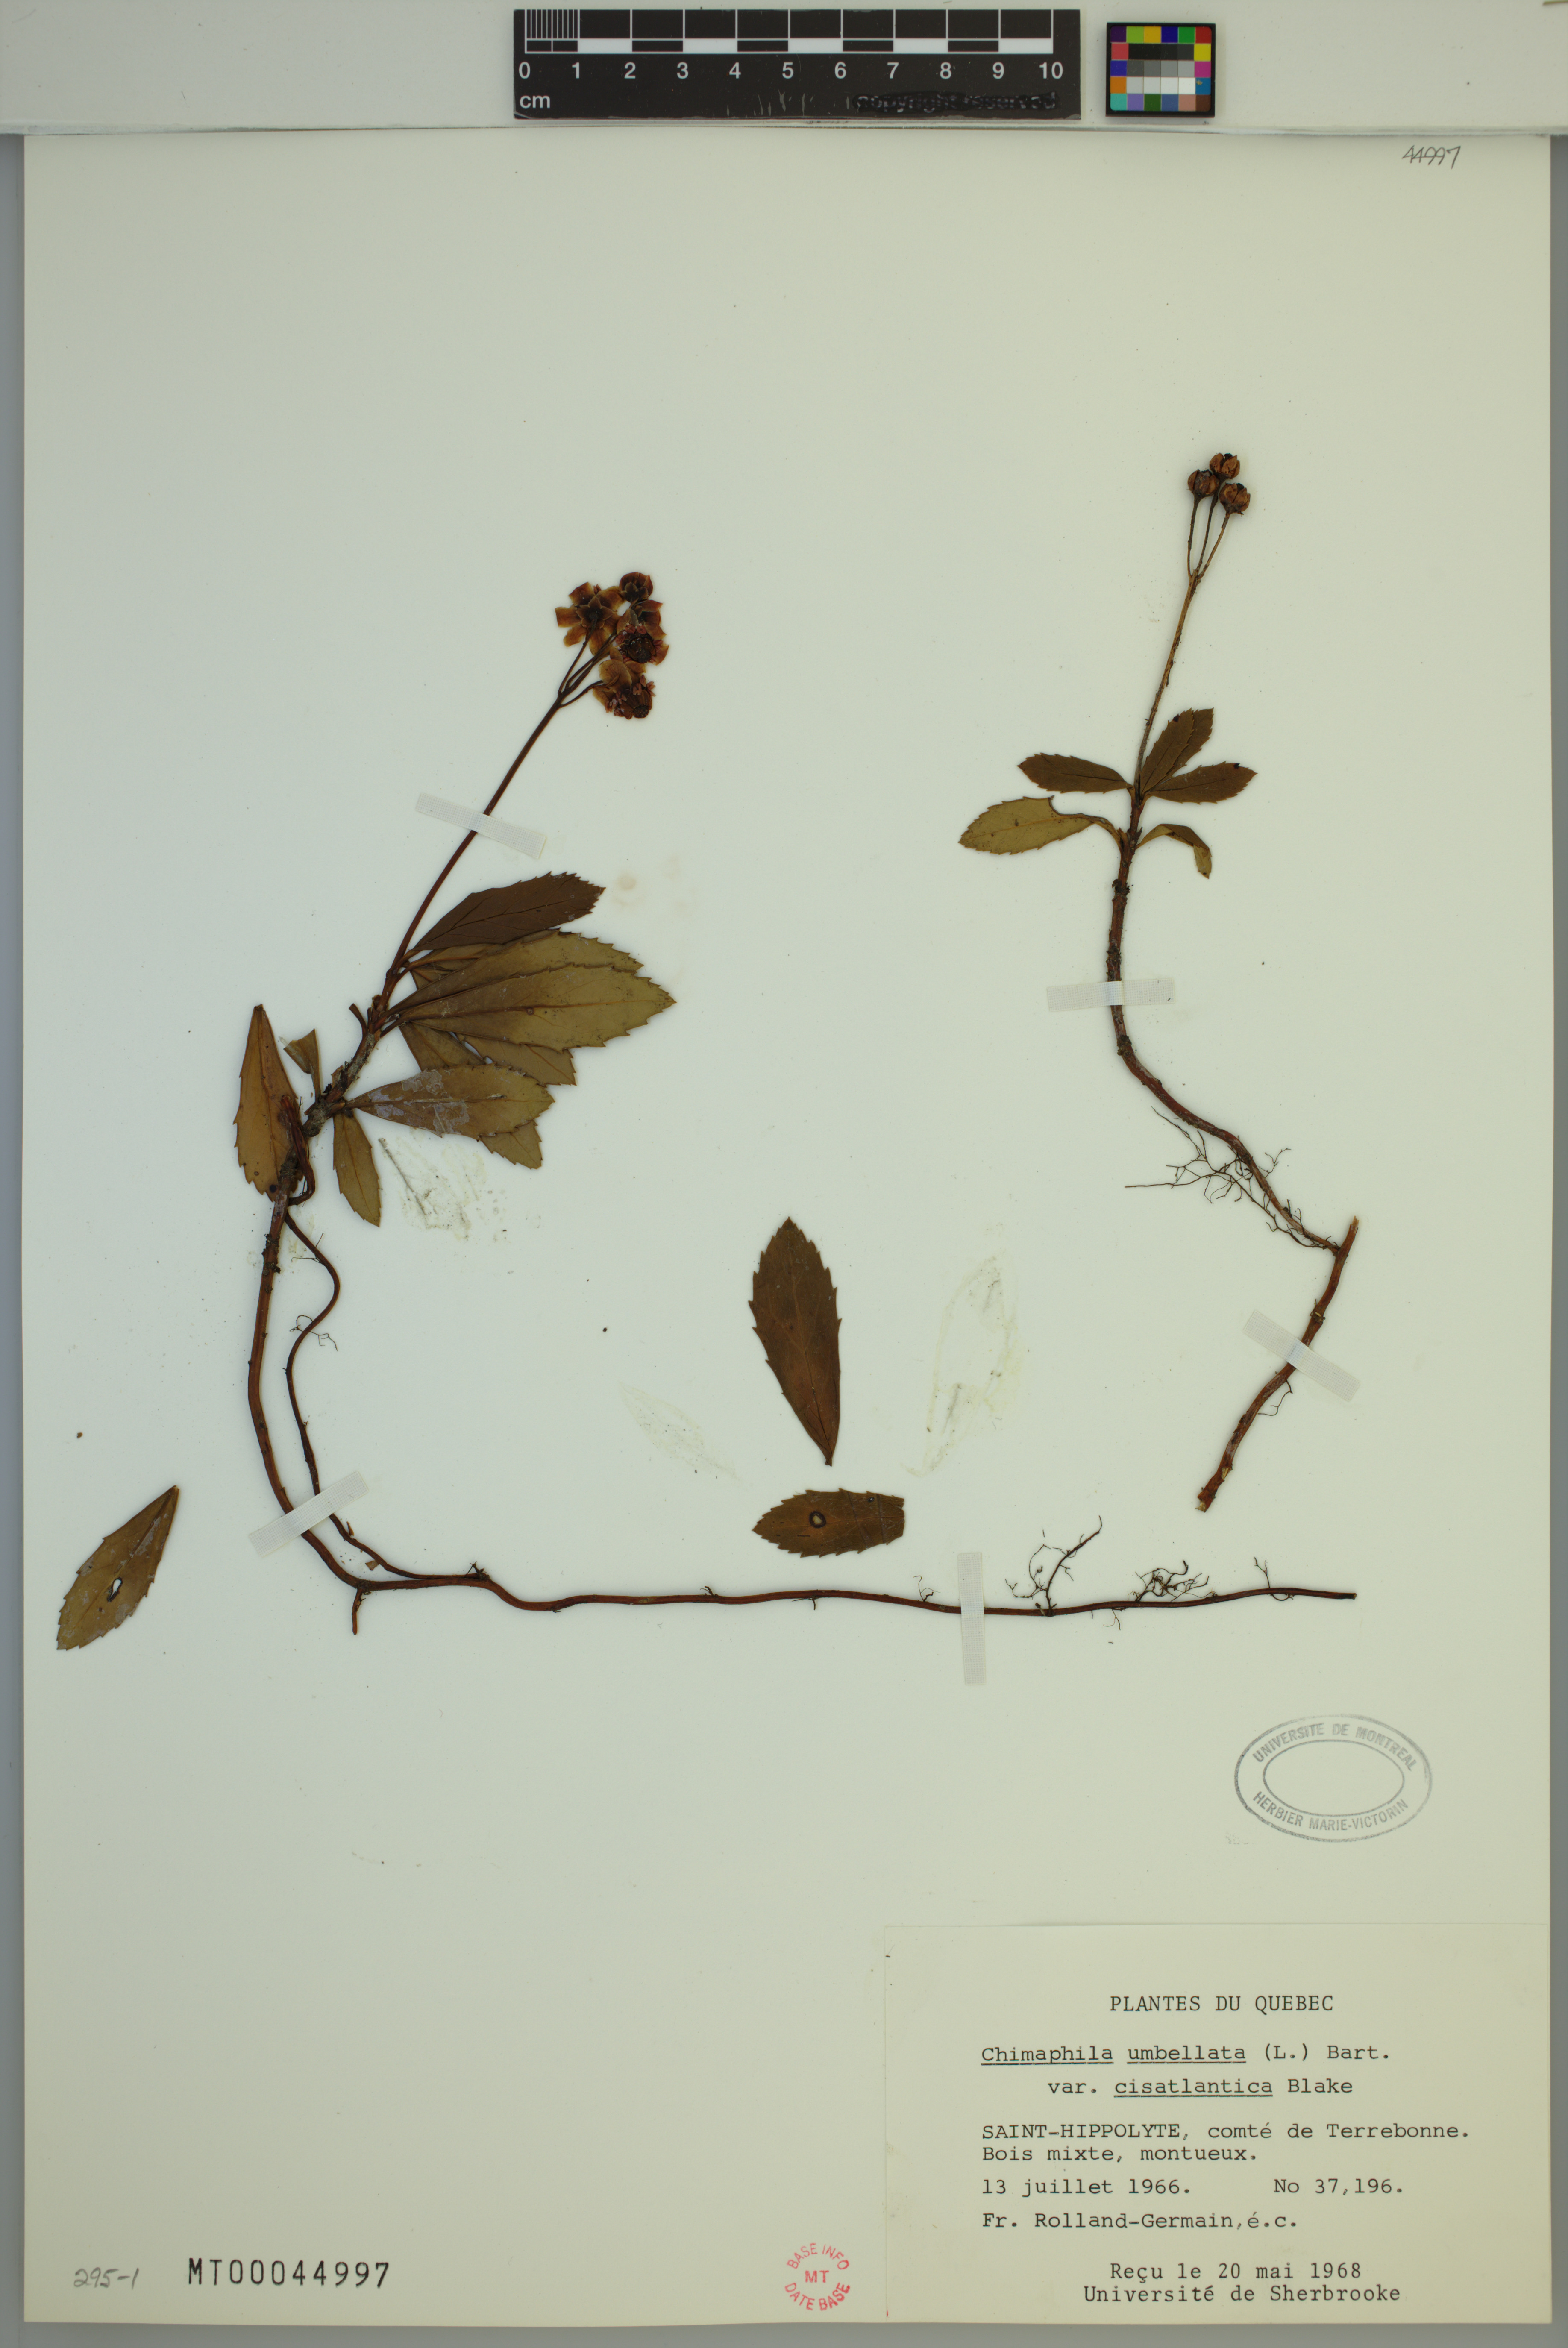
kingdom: Plantae
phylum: Tracheophyta
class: Magnoliopsida
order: Ericales
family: Ericaceae
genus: Chimaphila
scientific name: Chimaphila umbellata
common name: Pipsissewa
